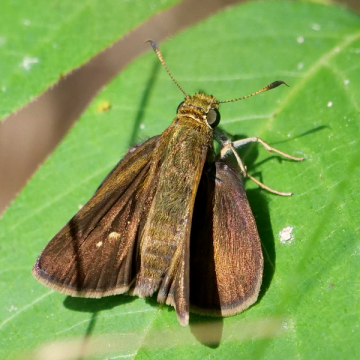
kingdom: Animalia
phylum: Arthropoda
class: Insecta
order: Lepidoptera
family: Hesperiidae
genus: Euphyes
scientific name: Euphyes vestris
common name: Dun Skipper
